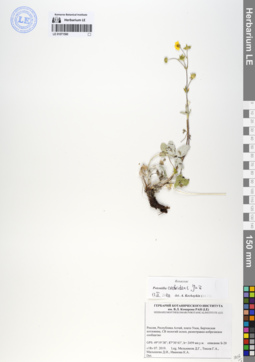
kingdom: Plantae
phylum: Tracheophyta
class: Magnoliopsida
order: Rosales
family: Rosaceae
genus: Potentilla
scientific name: Potentilla crebridens
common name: Congested cinquefoil
